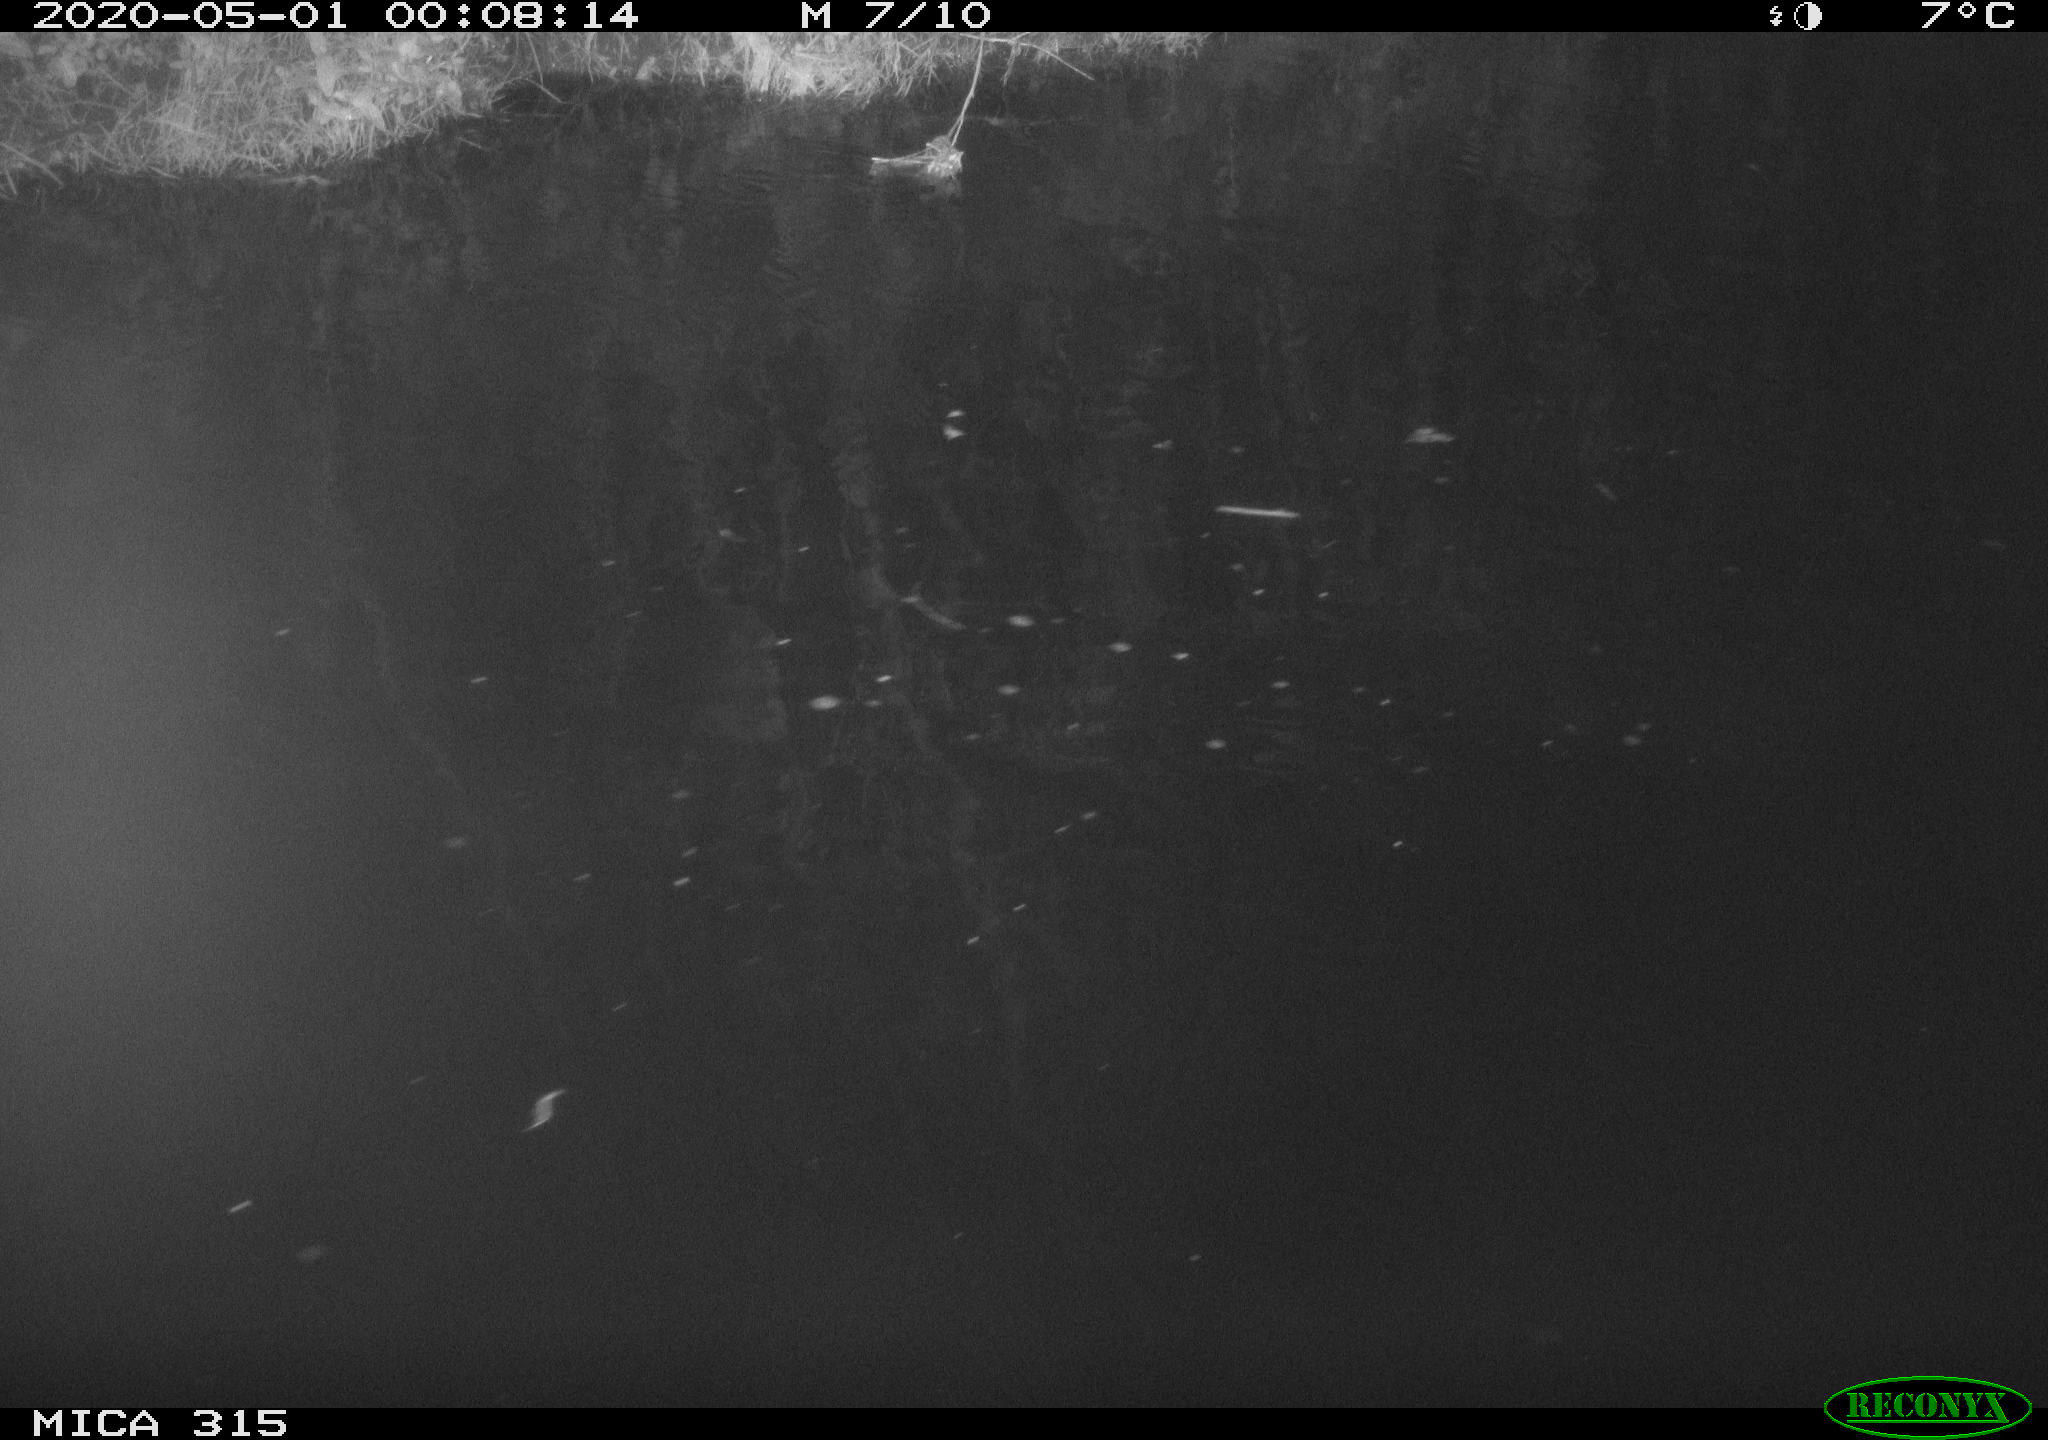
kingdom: Animalia
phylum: Chordata
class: Aves
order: Anseriformes
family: Anatidae
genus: Anas
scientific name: Anas platyrhynchos
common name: Mallard
